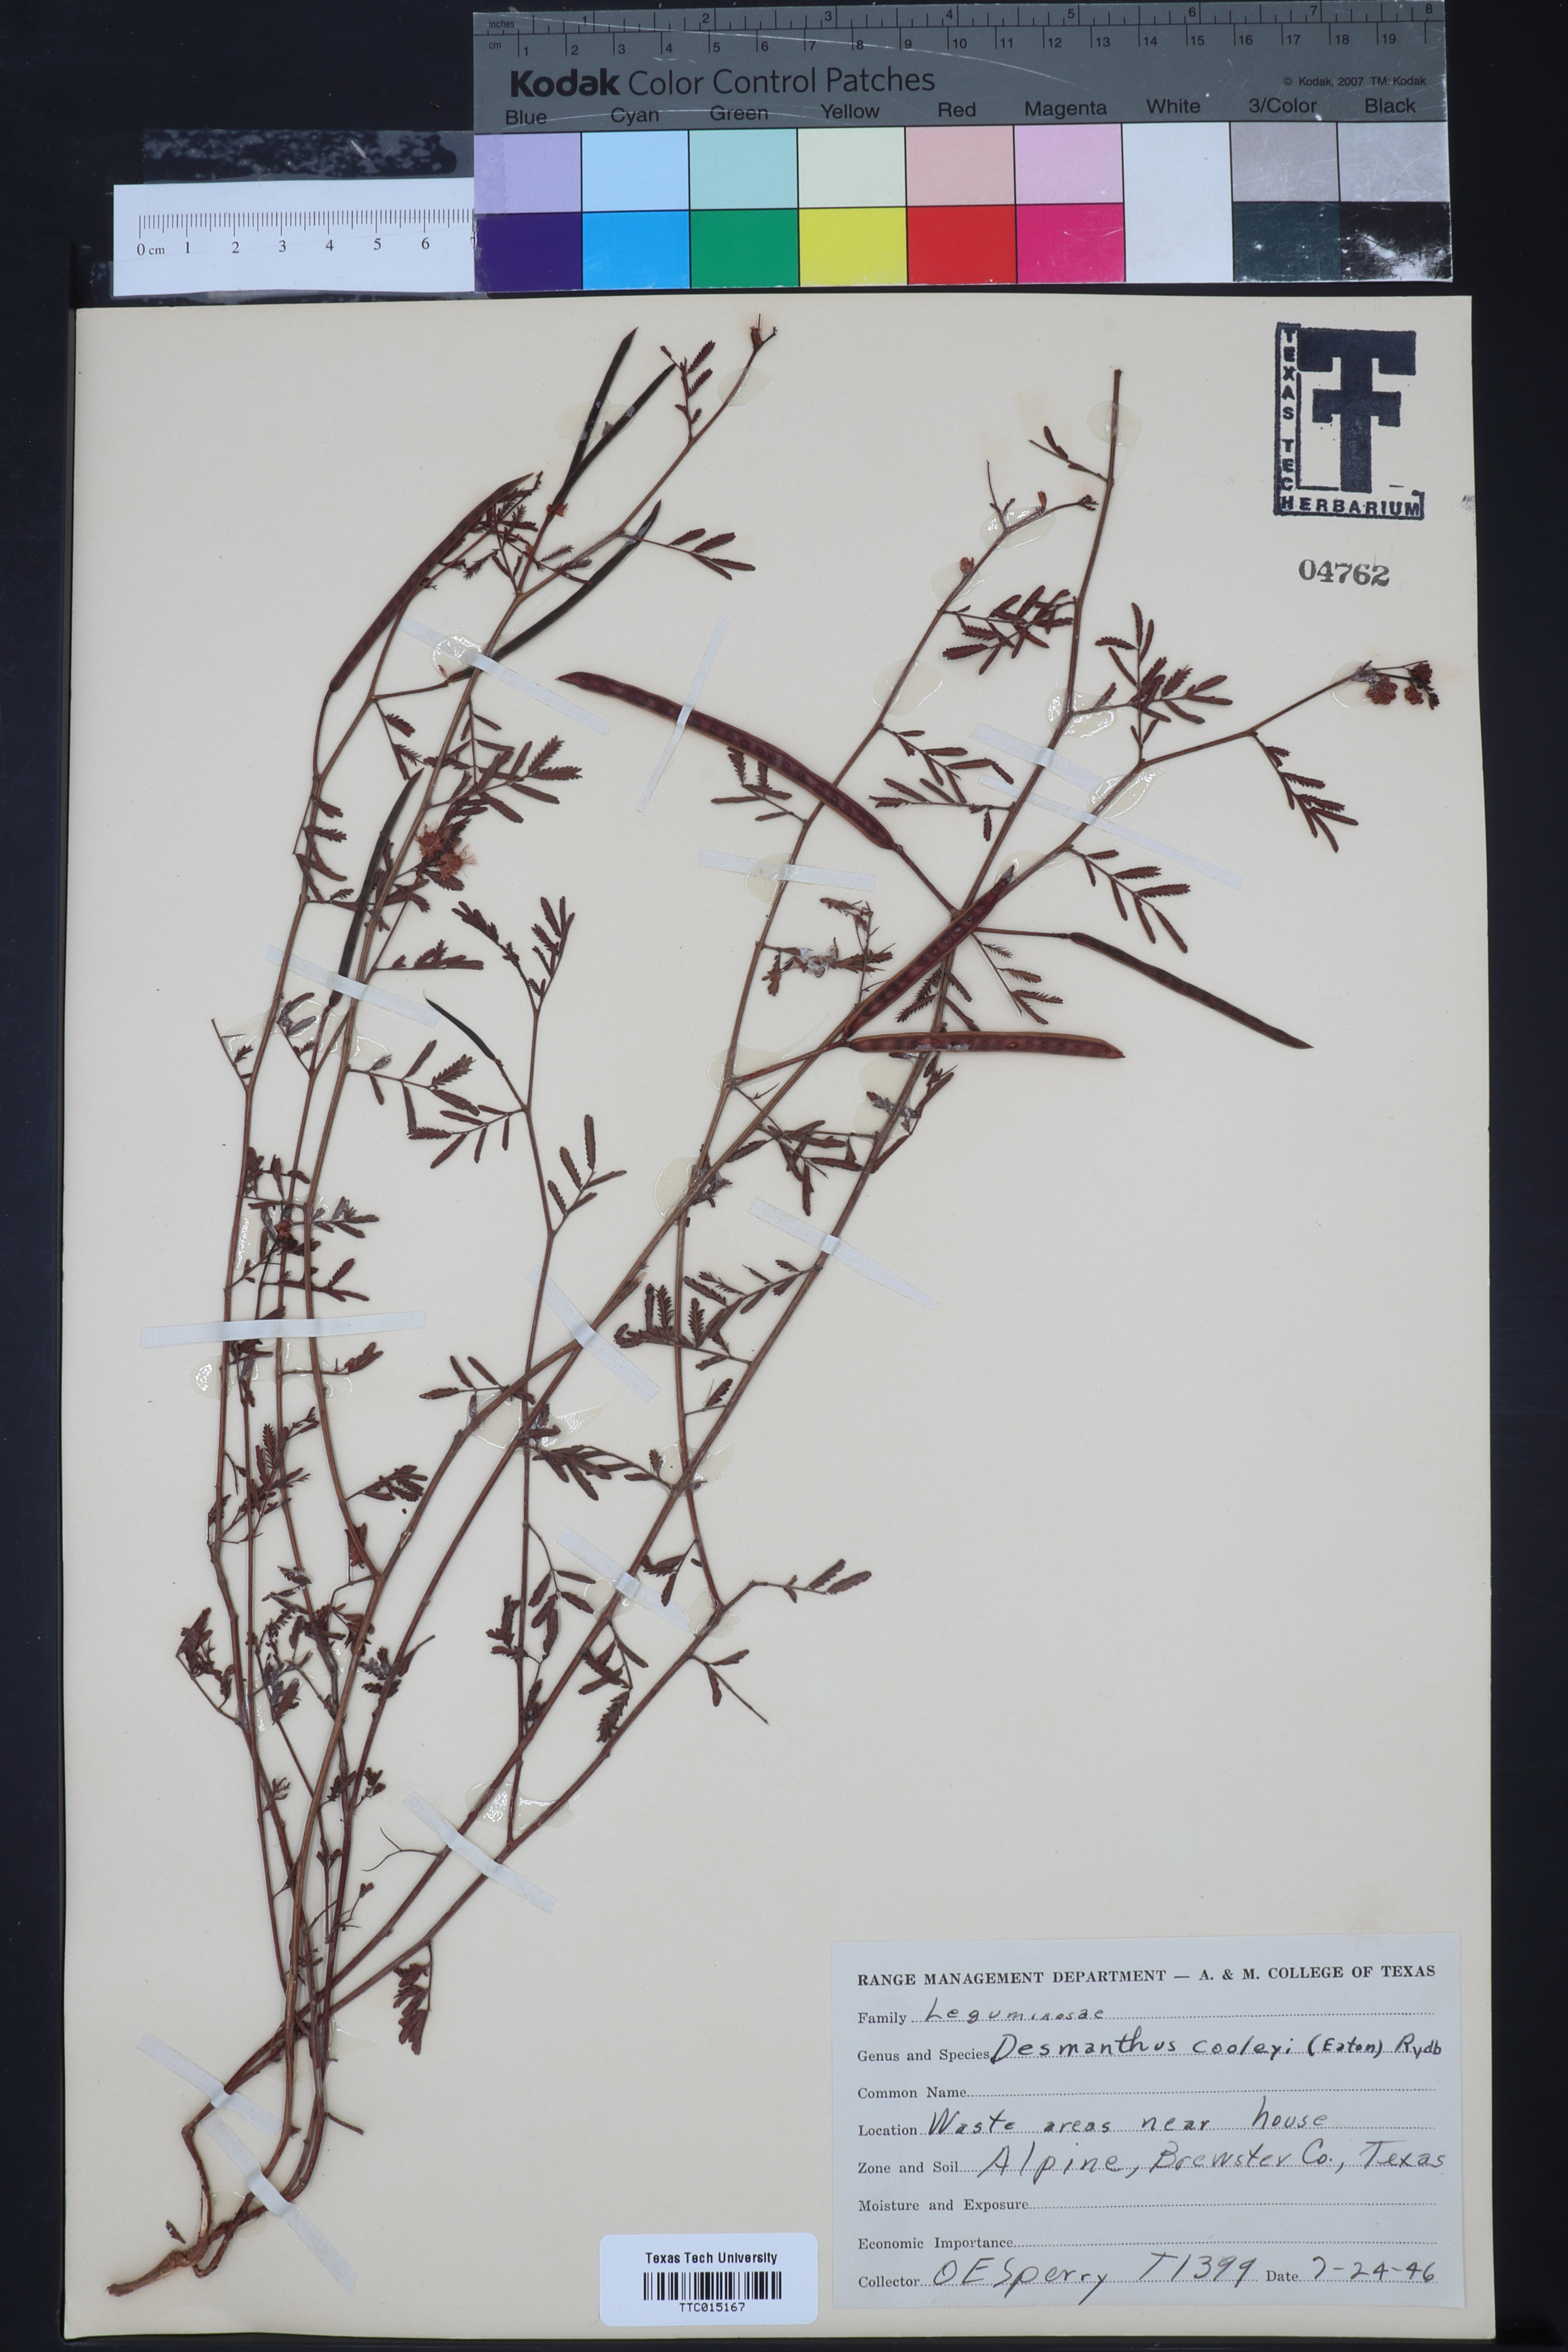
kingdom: Plantae
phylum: Tracheophyta
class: Magnoliopsida
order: Fabales
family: Fabaceae
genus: Desmanthus
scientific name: Desmanthus cooleyi
